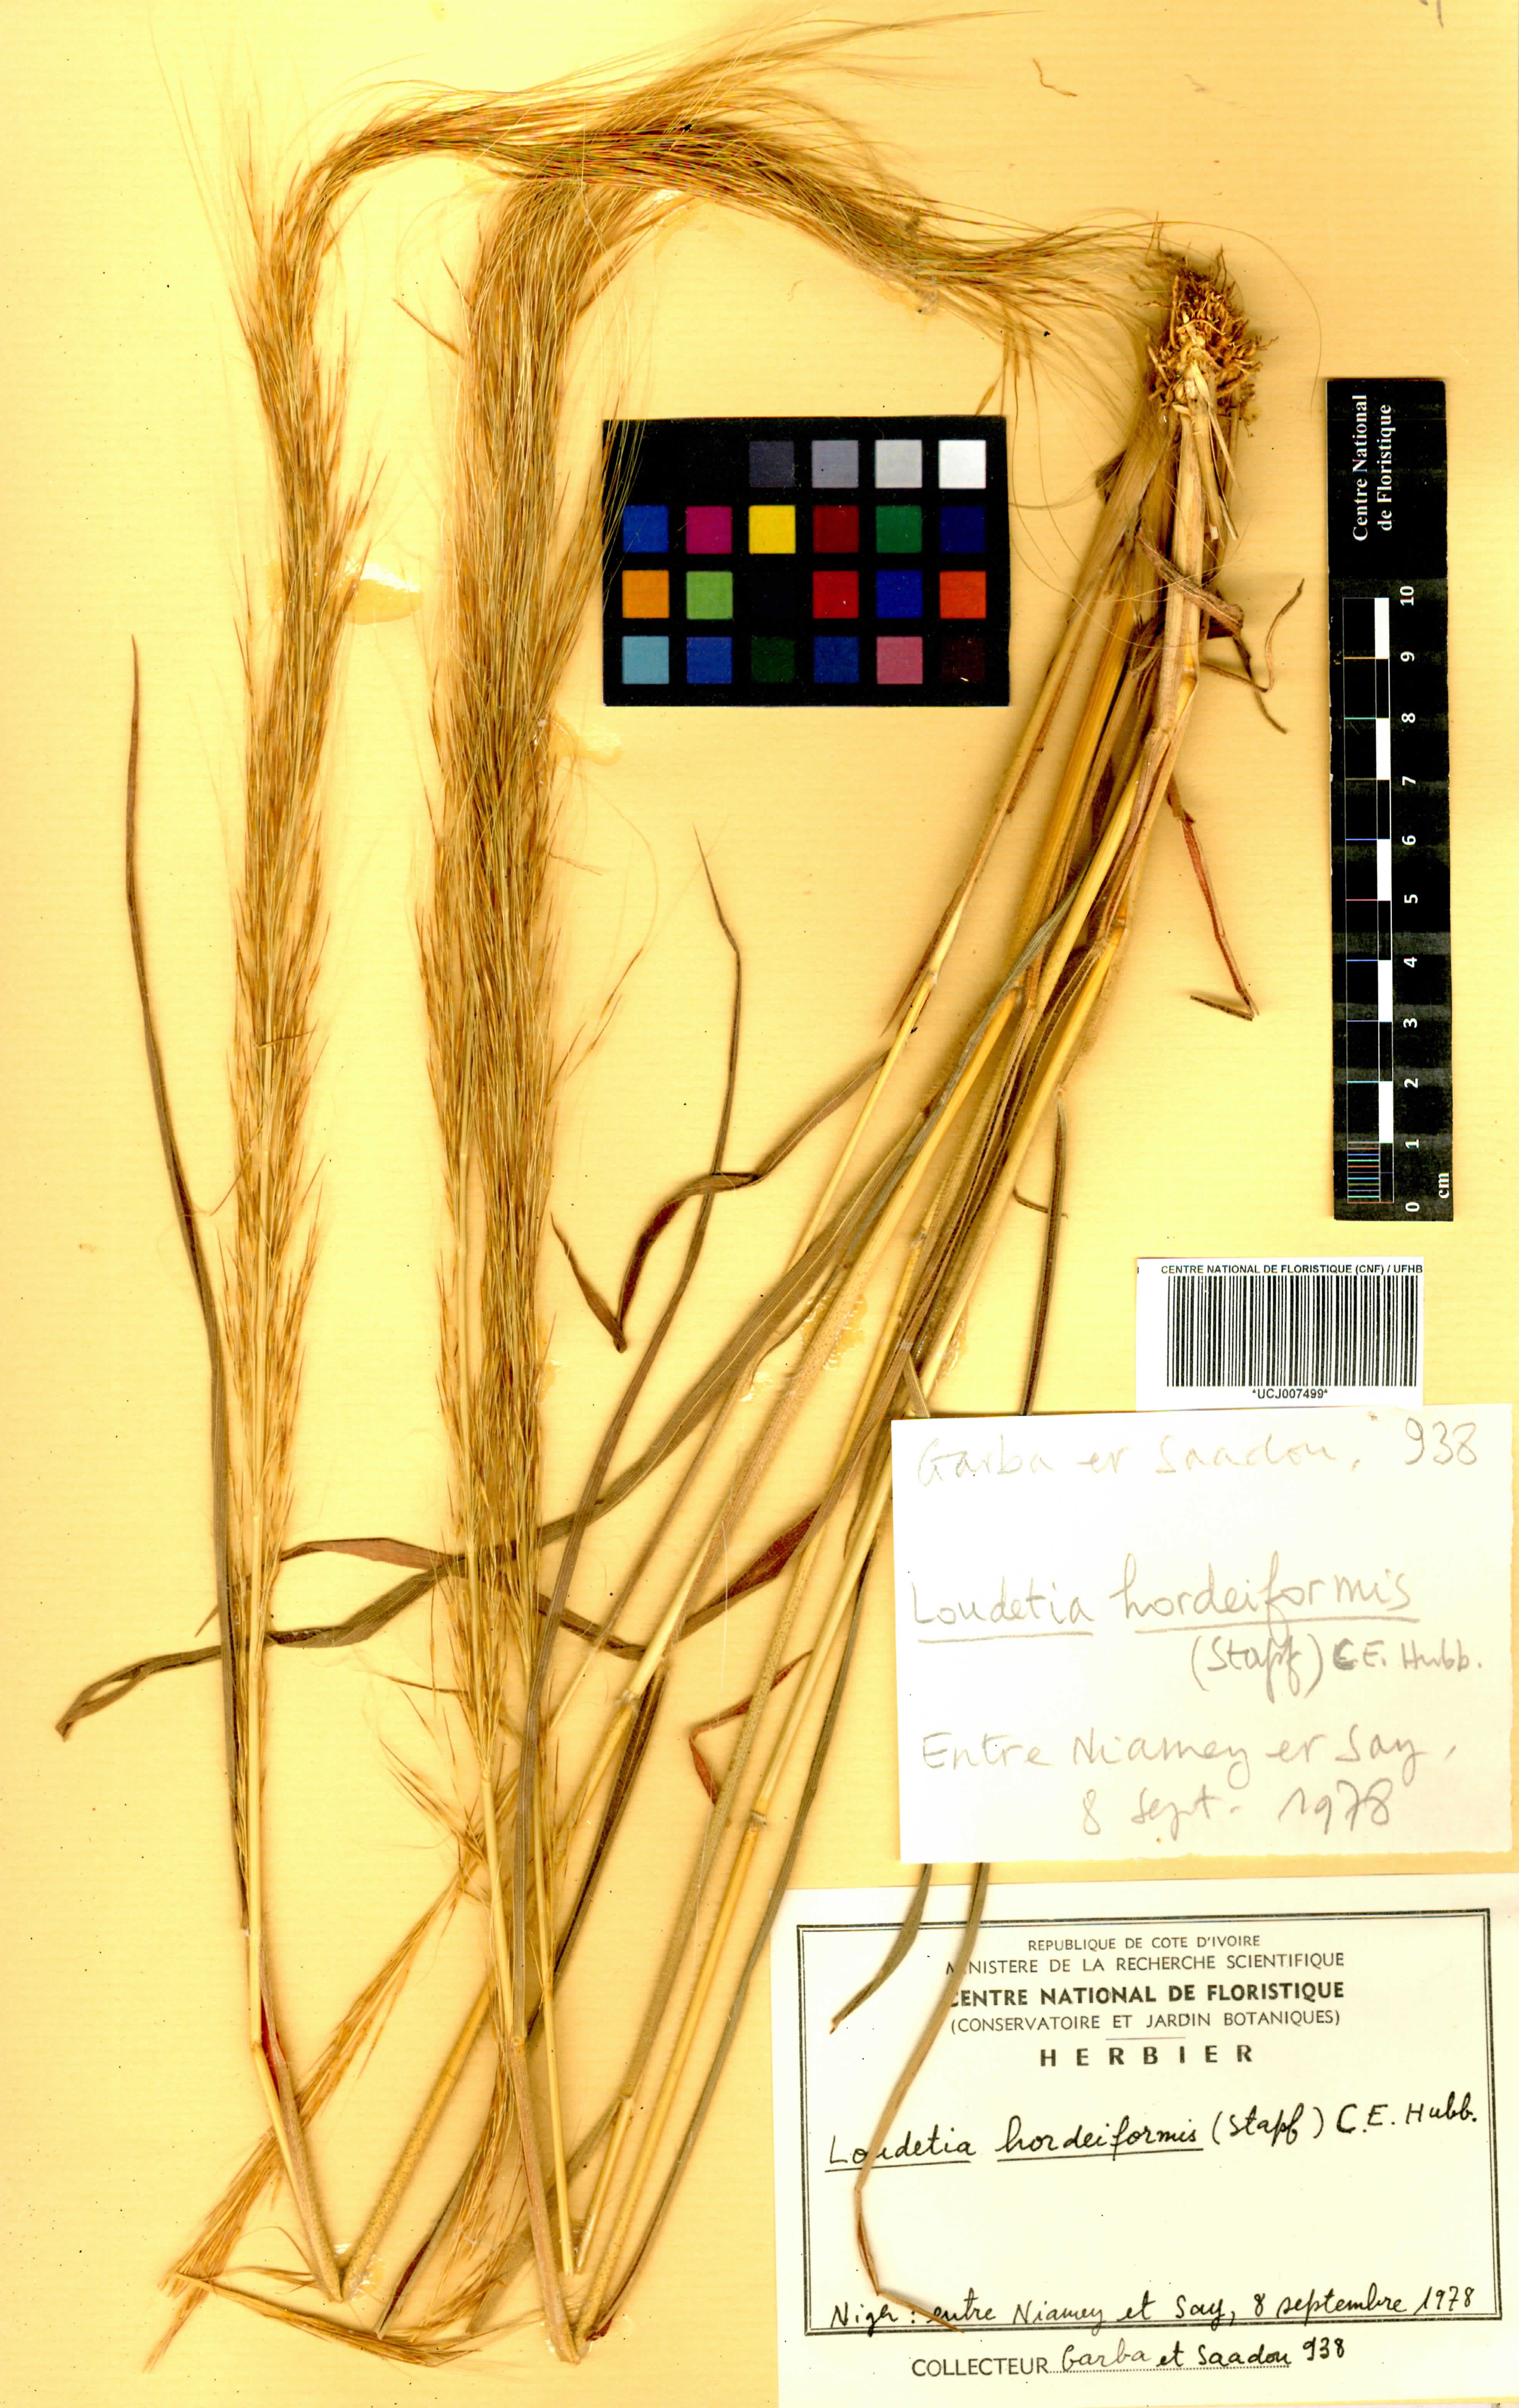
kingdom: Plantae
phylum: Tracheophyta
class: Liliopsida
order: Poales
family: Poaceae
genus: Loudetia
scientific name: Loudetia hordeiformis
